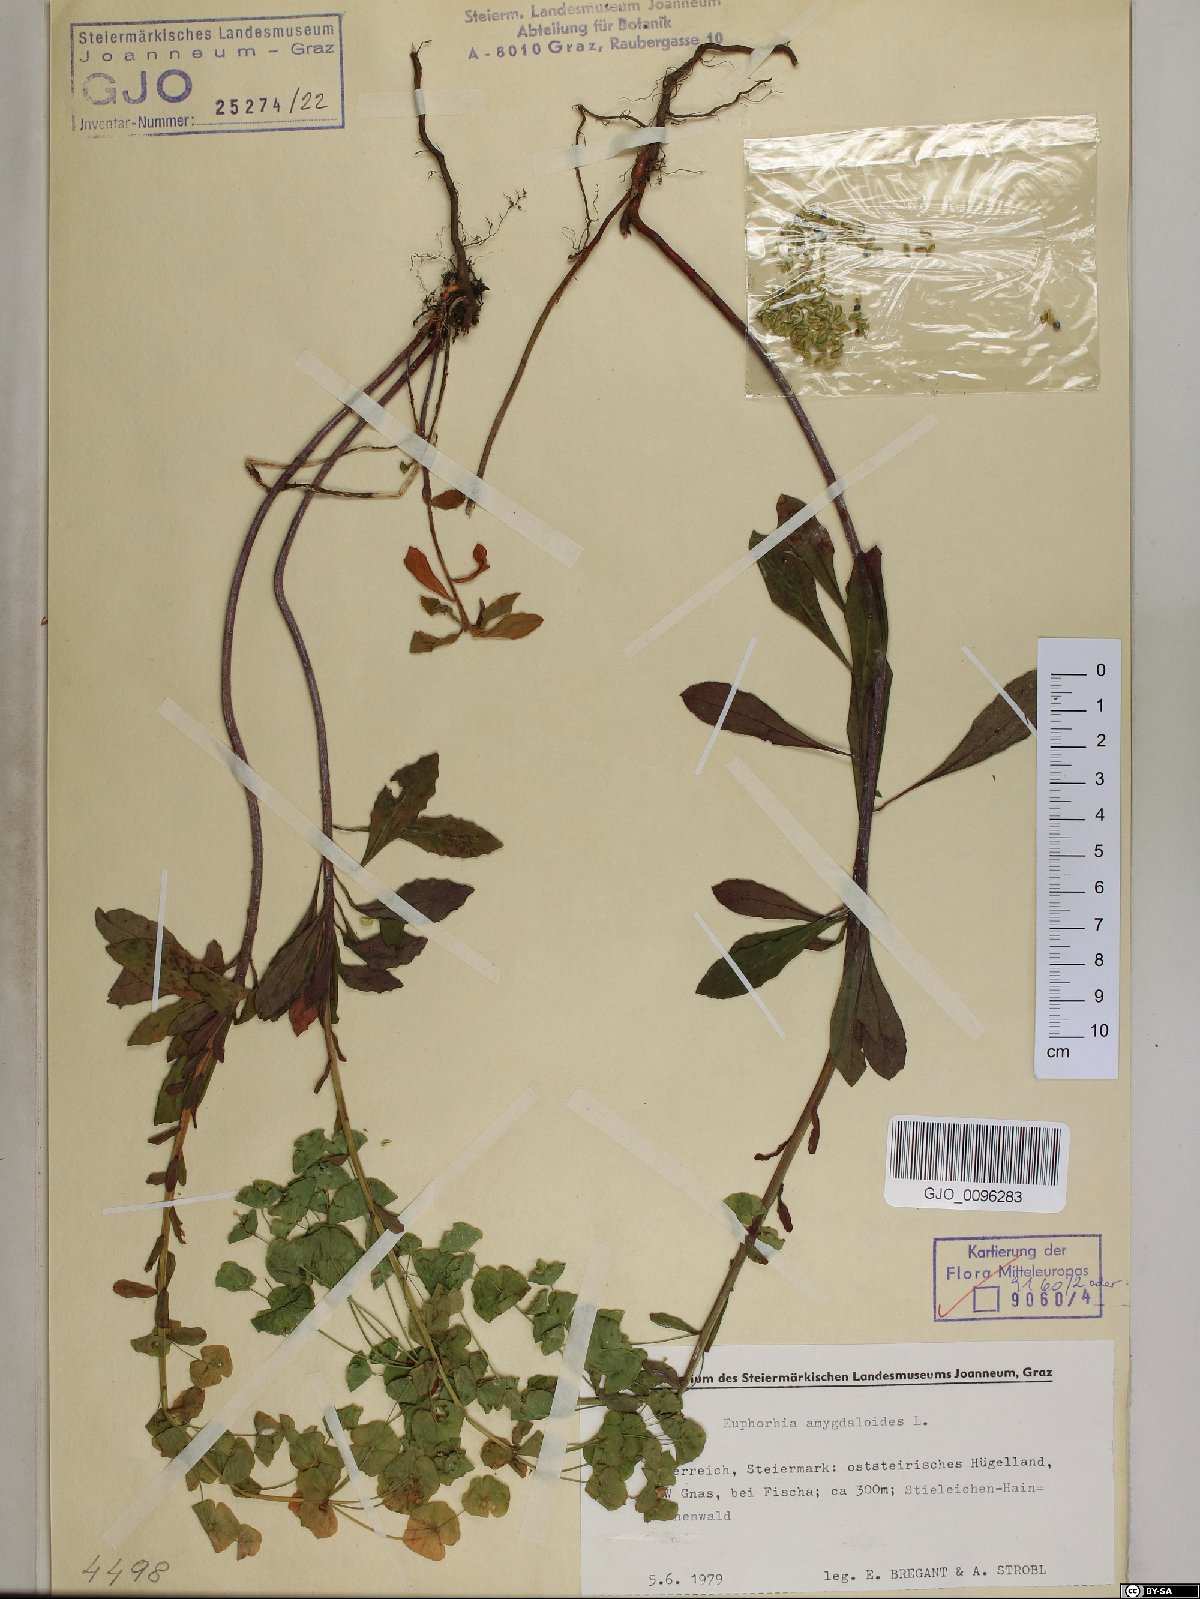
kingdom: Plantae
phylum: Tracheophyta
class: Magnoliopsida
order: Malpighiales
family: Euphorbiaceae
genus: Euphorbia
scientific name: Euphorbia amygdaloides
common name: Wood spurge
